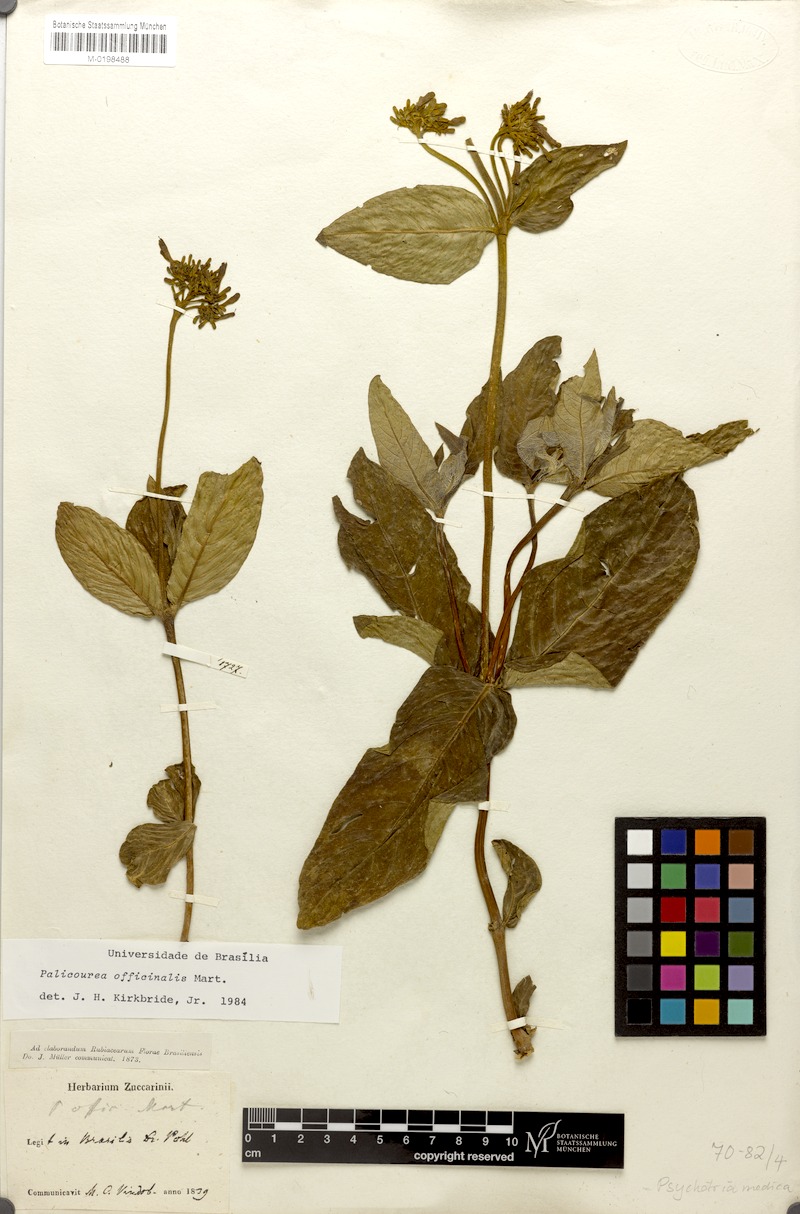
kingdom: Plantae
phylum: Tracheophyta
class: Magnoliopsida
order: Gentianales
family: Rubiaceae
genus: Palicourea
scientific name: Palicourea officinalis
